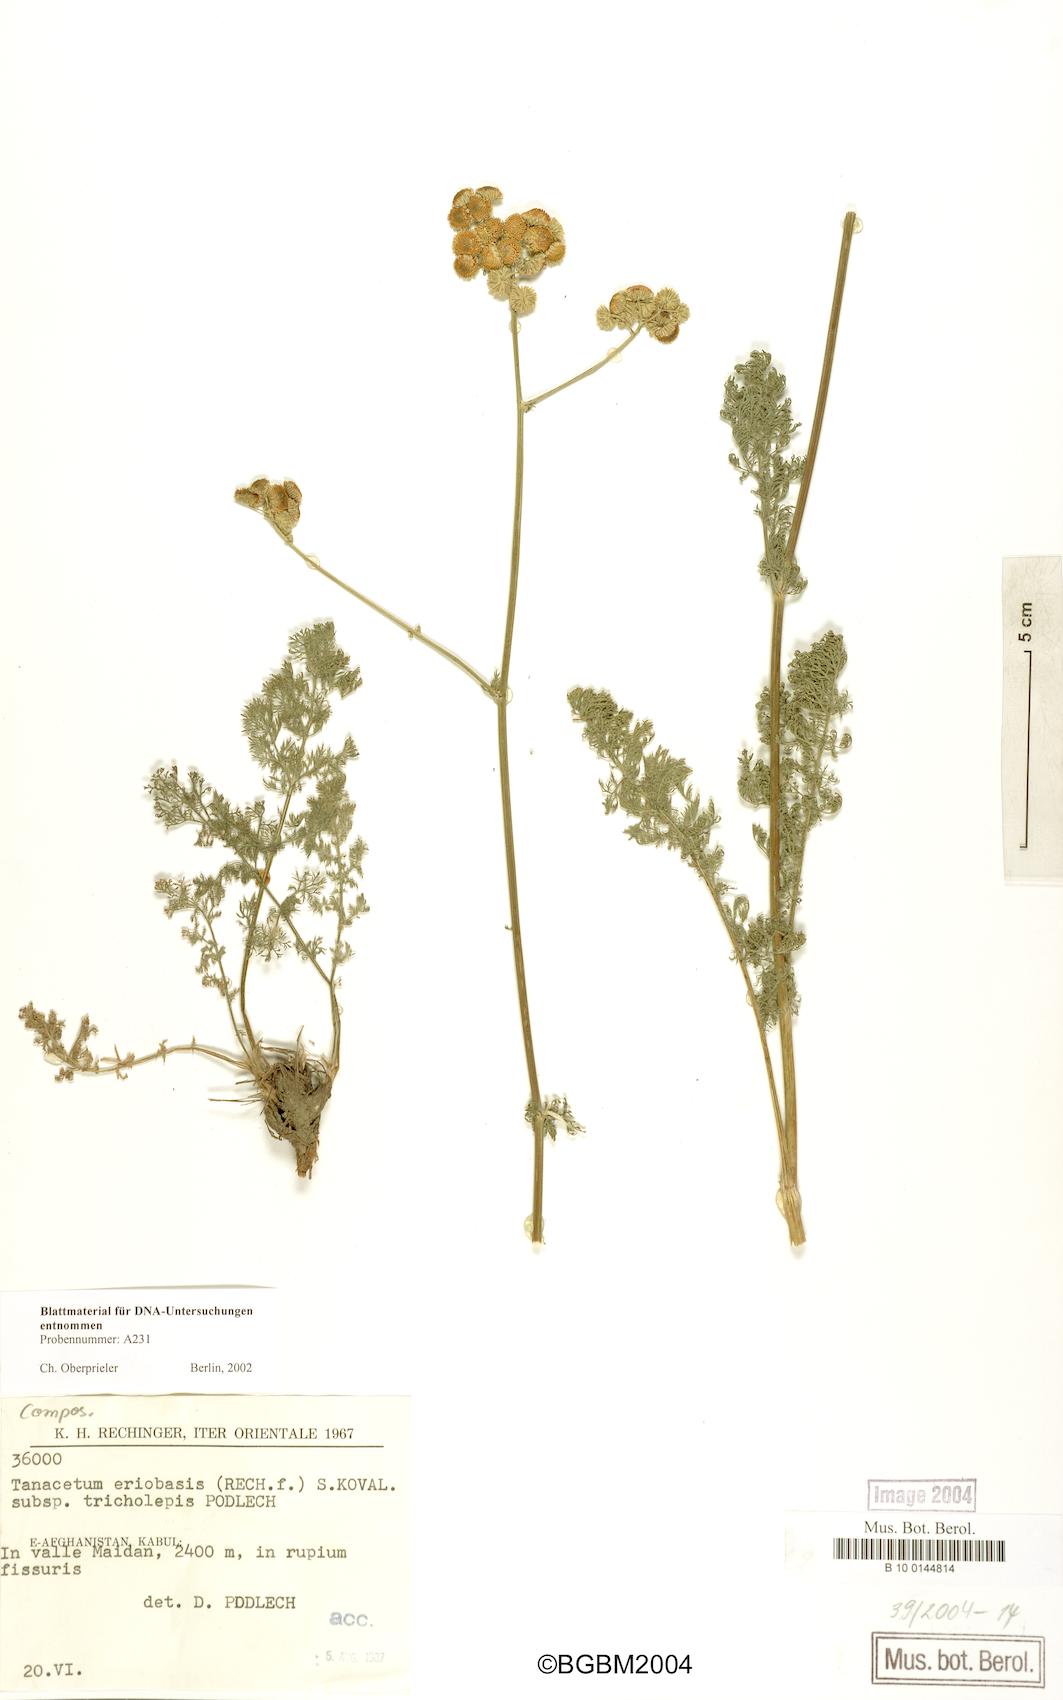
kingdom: Plantae
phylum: Tracheophyta
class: Magnoliopsida
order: Asterales
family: Asteraceae
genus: Tanacetopsis
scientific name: Tanacetopsis eriobasis
